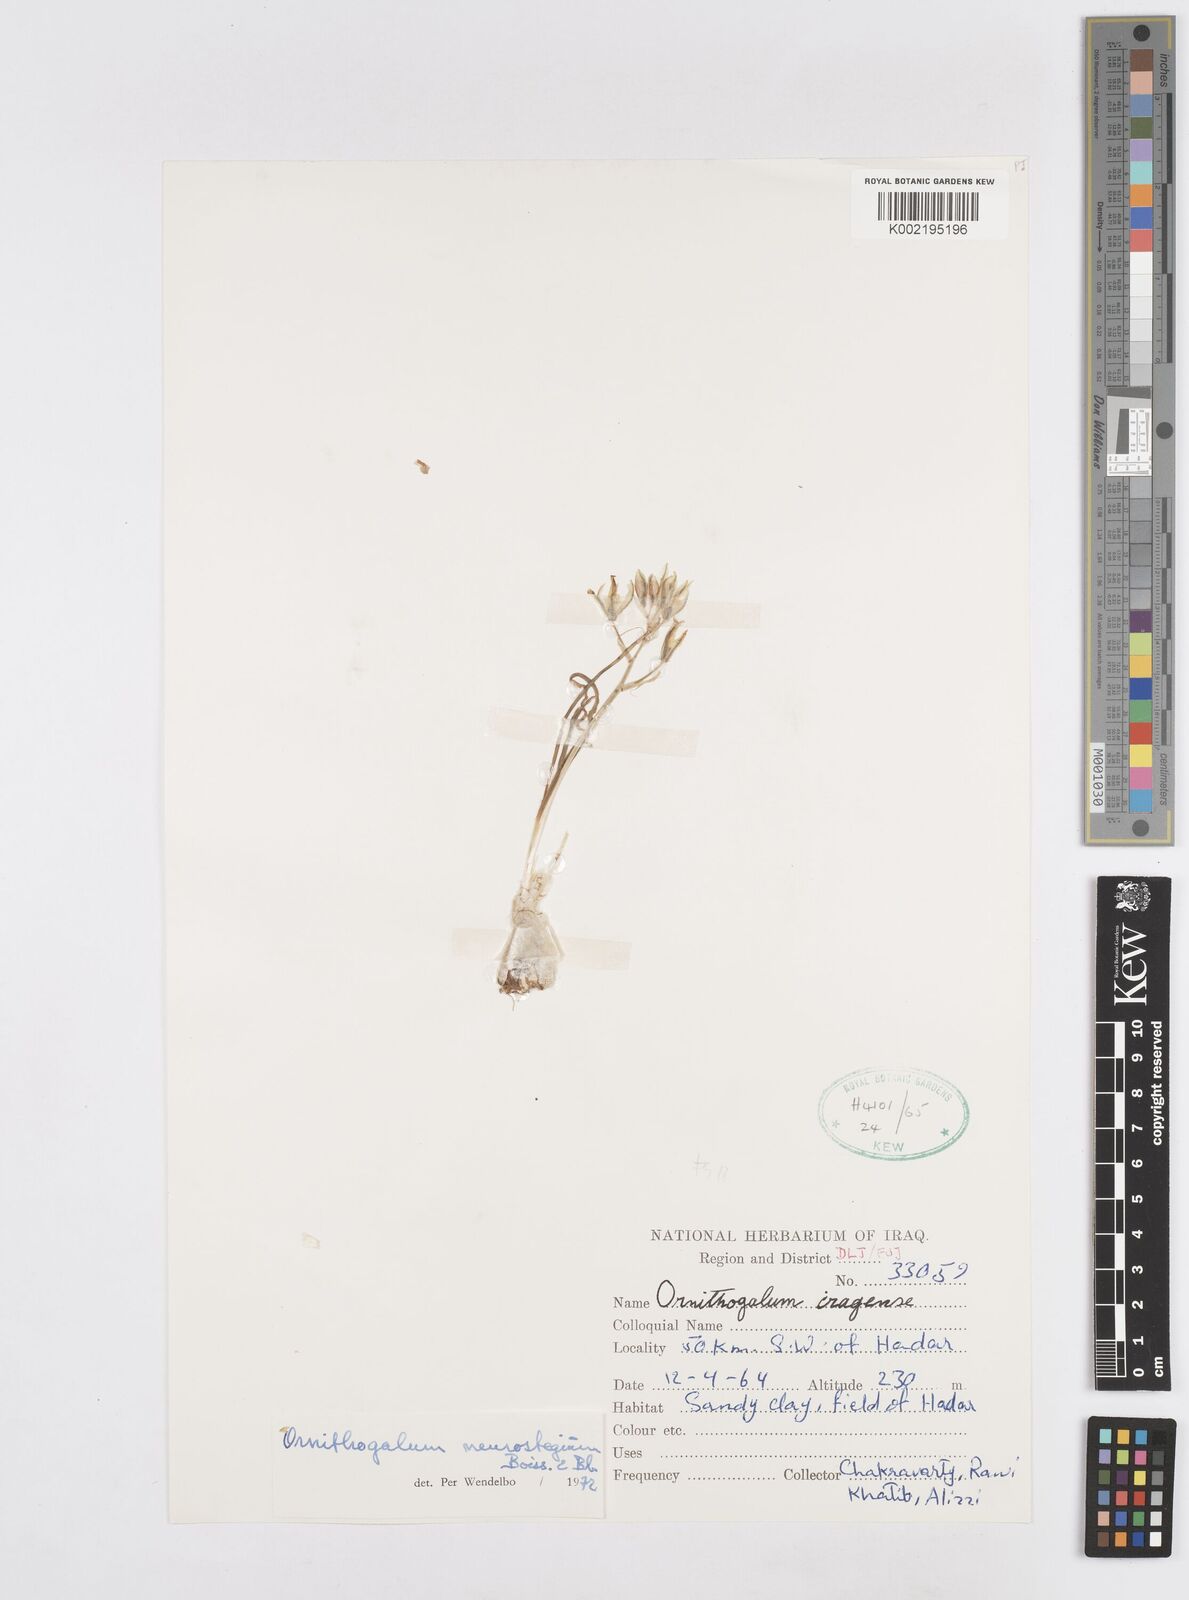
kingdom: Plantae
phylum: Tracheophyta
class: Liliopsida
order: Asparagales
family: Asparagaceae
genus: Ornithogalum
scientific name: Ornithogalum neurostegium
